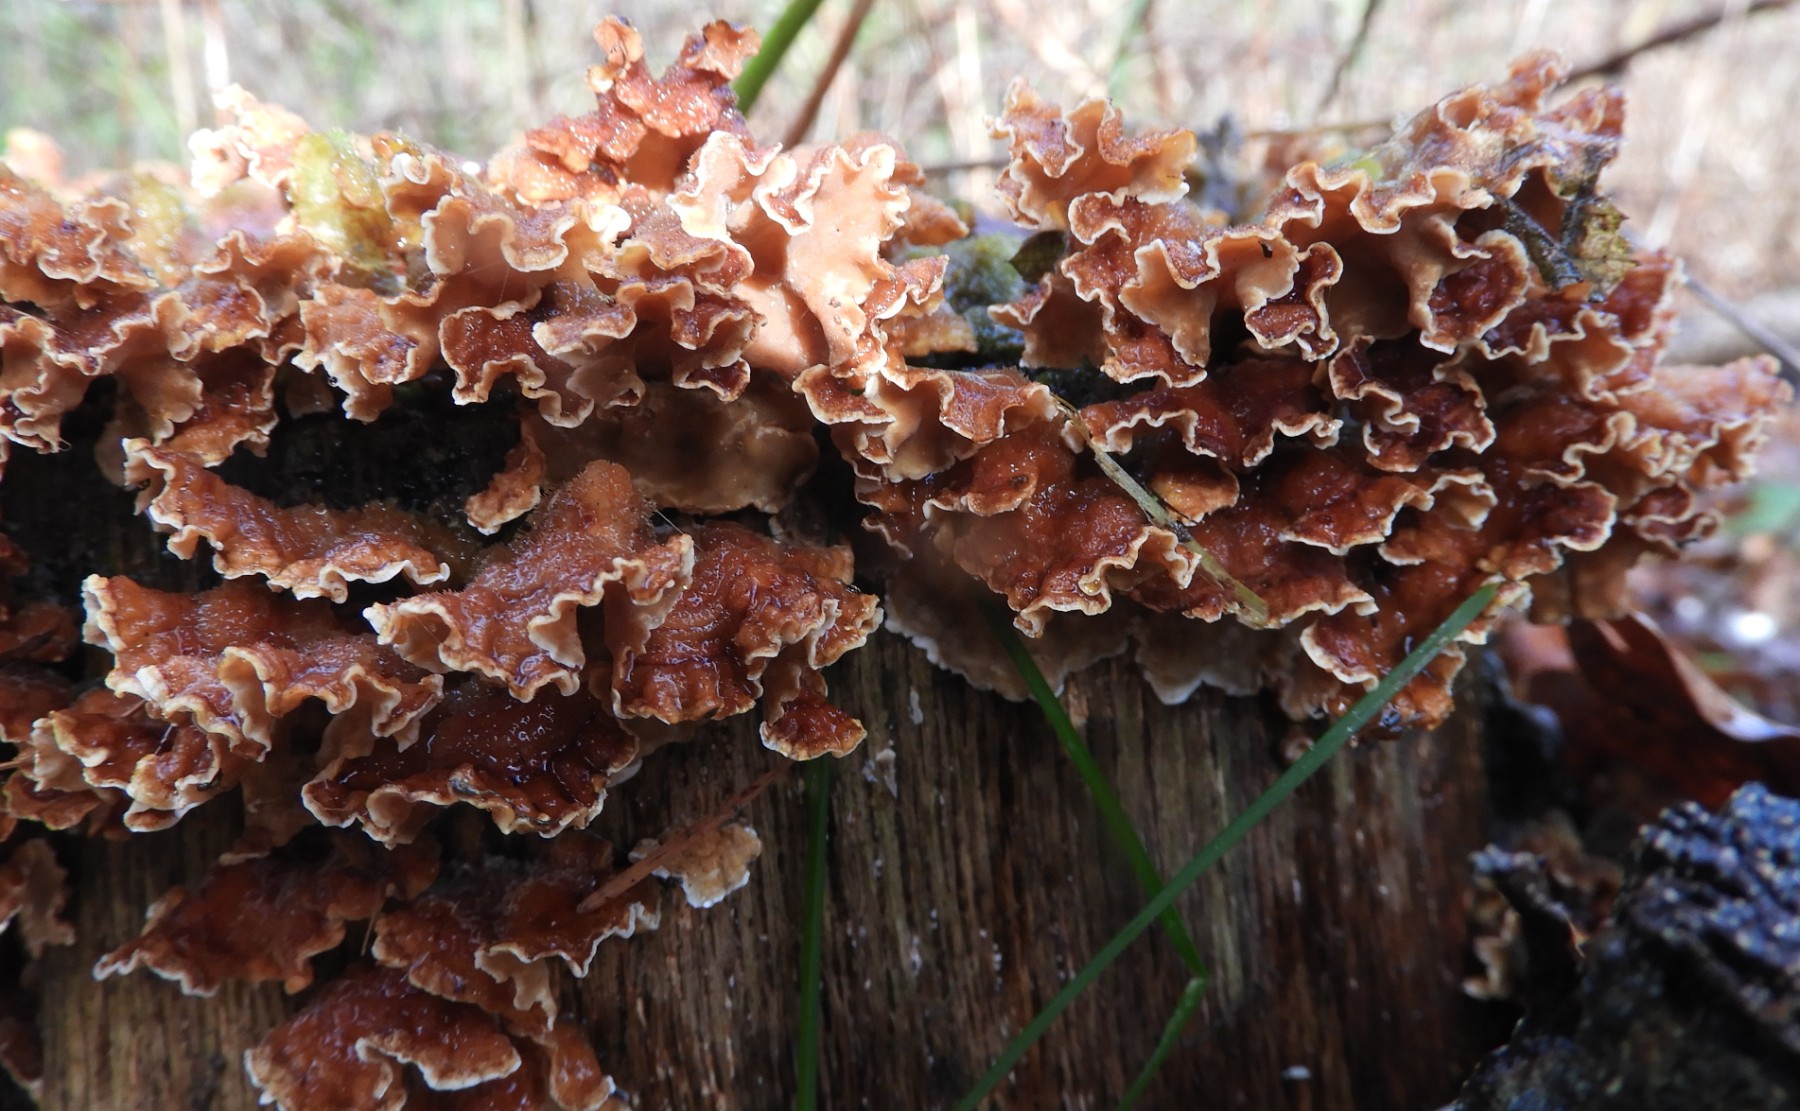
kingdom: Fungi
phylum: Basidiomycota
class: Agaricomycetes
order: Russulales
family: Stereaceae
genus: Stereum
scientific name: Stereum hirsutum
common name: håret lædersvamp
